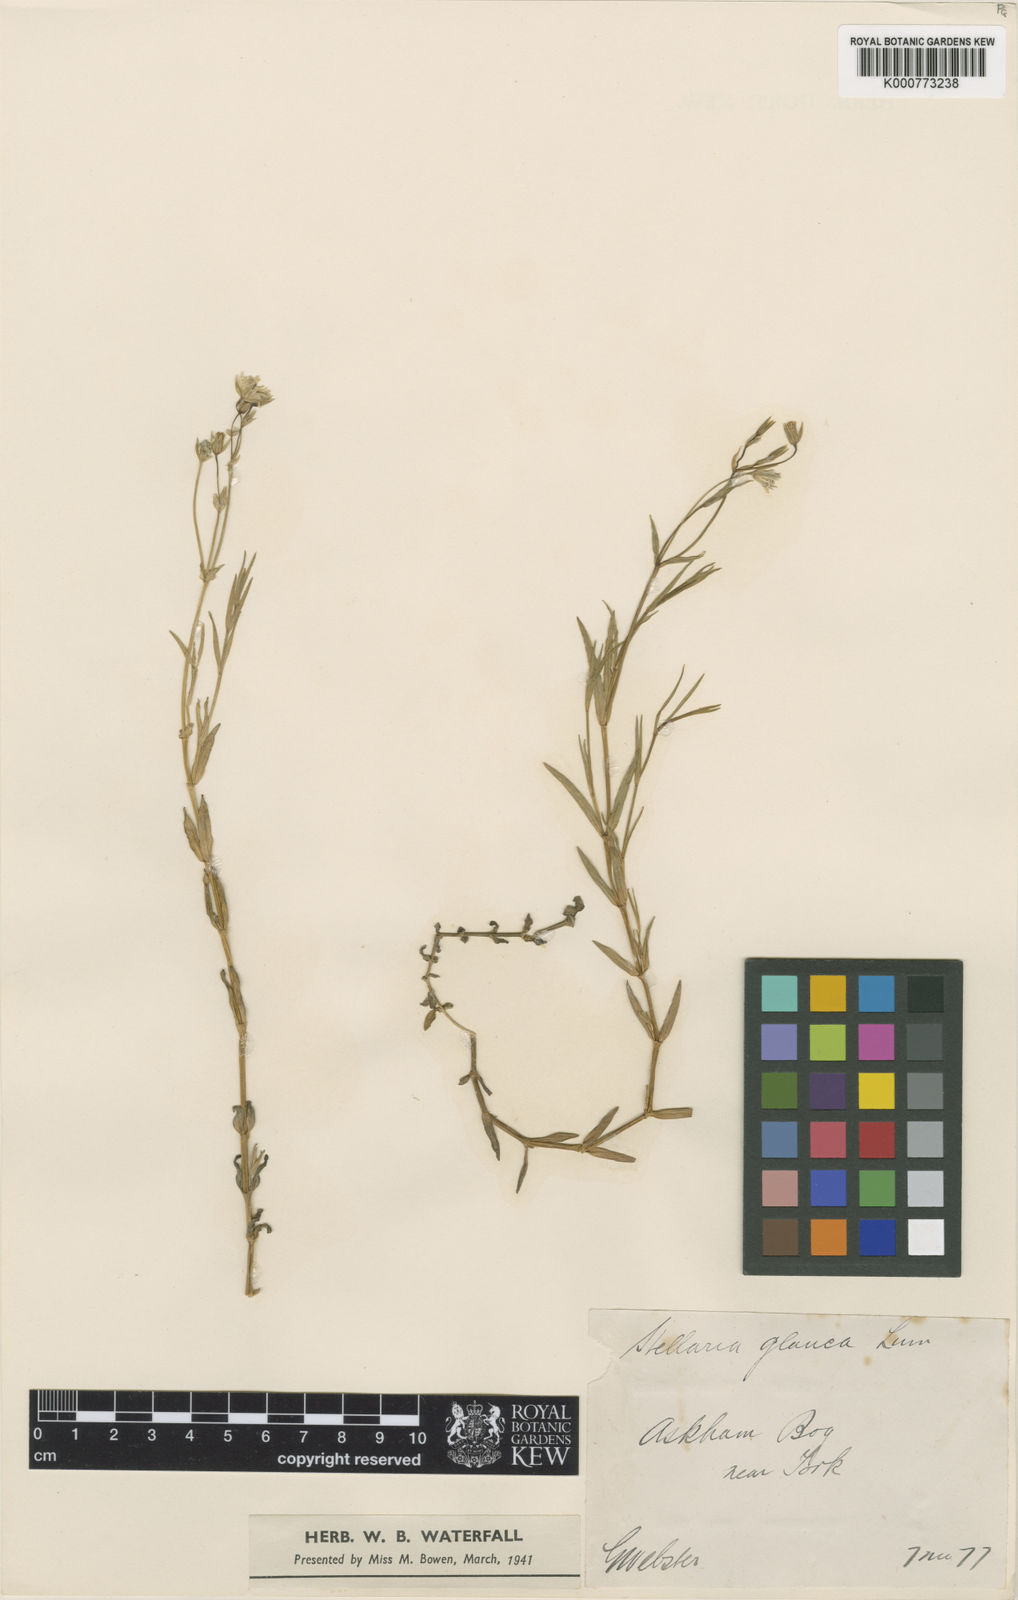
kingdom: Plantae
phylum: Tracheophyta
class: Magnoliopsida
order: Caryophyllales
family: Caryophyllaceae
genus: Stellaria
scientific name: Stellaria
